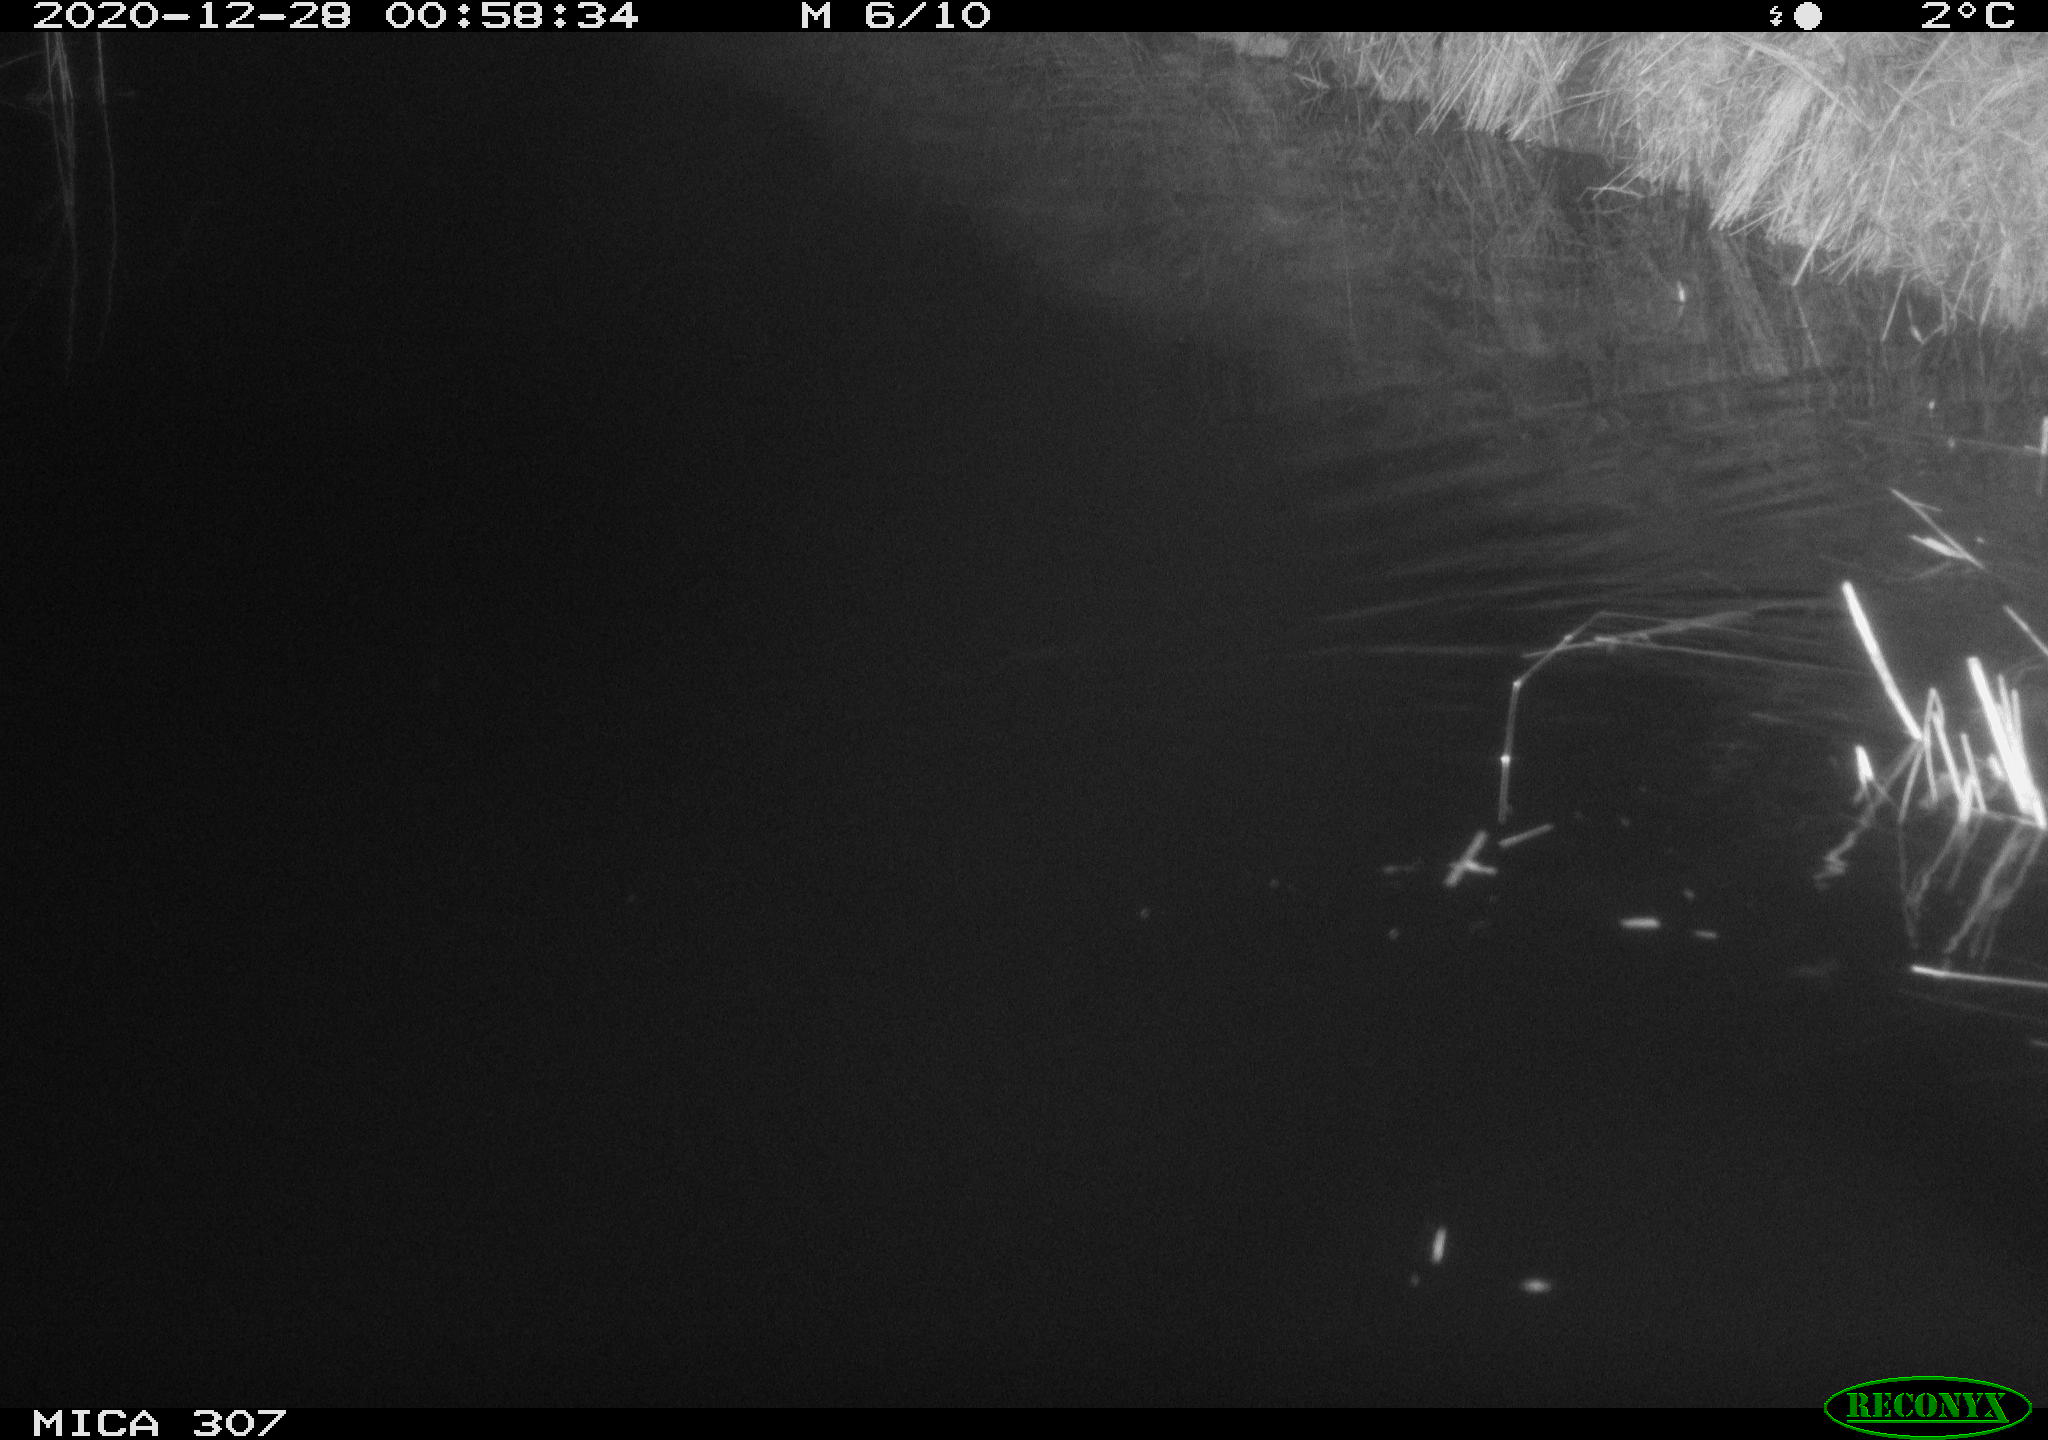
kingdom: Animalia
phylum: Chordata
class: Mammalia
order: Rodentia
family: Muridae
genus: Rattus
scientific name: Rattus norvegicus
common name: Brown rat
